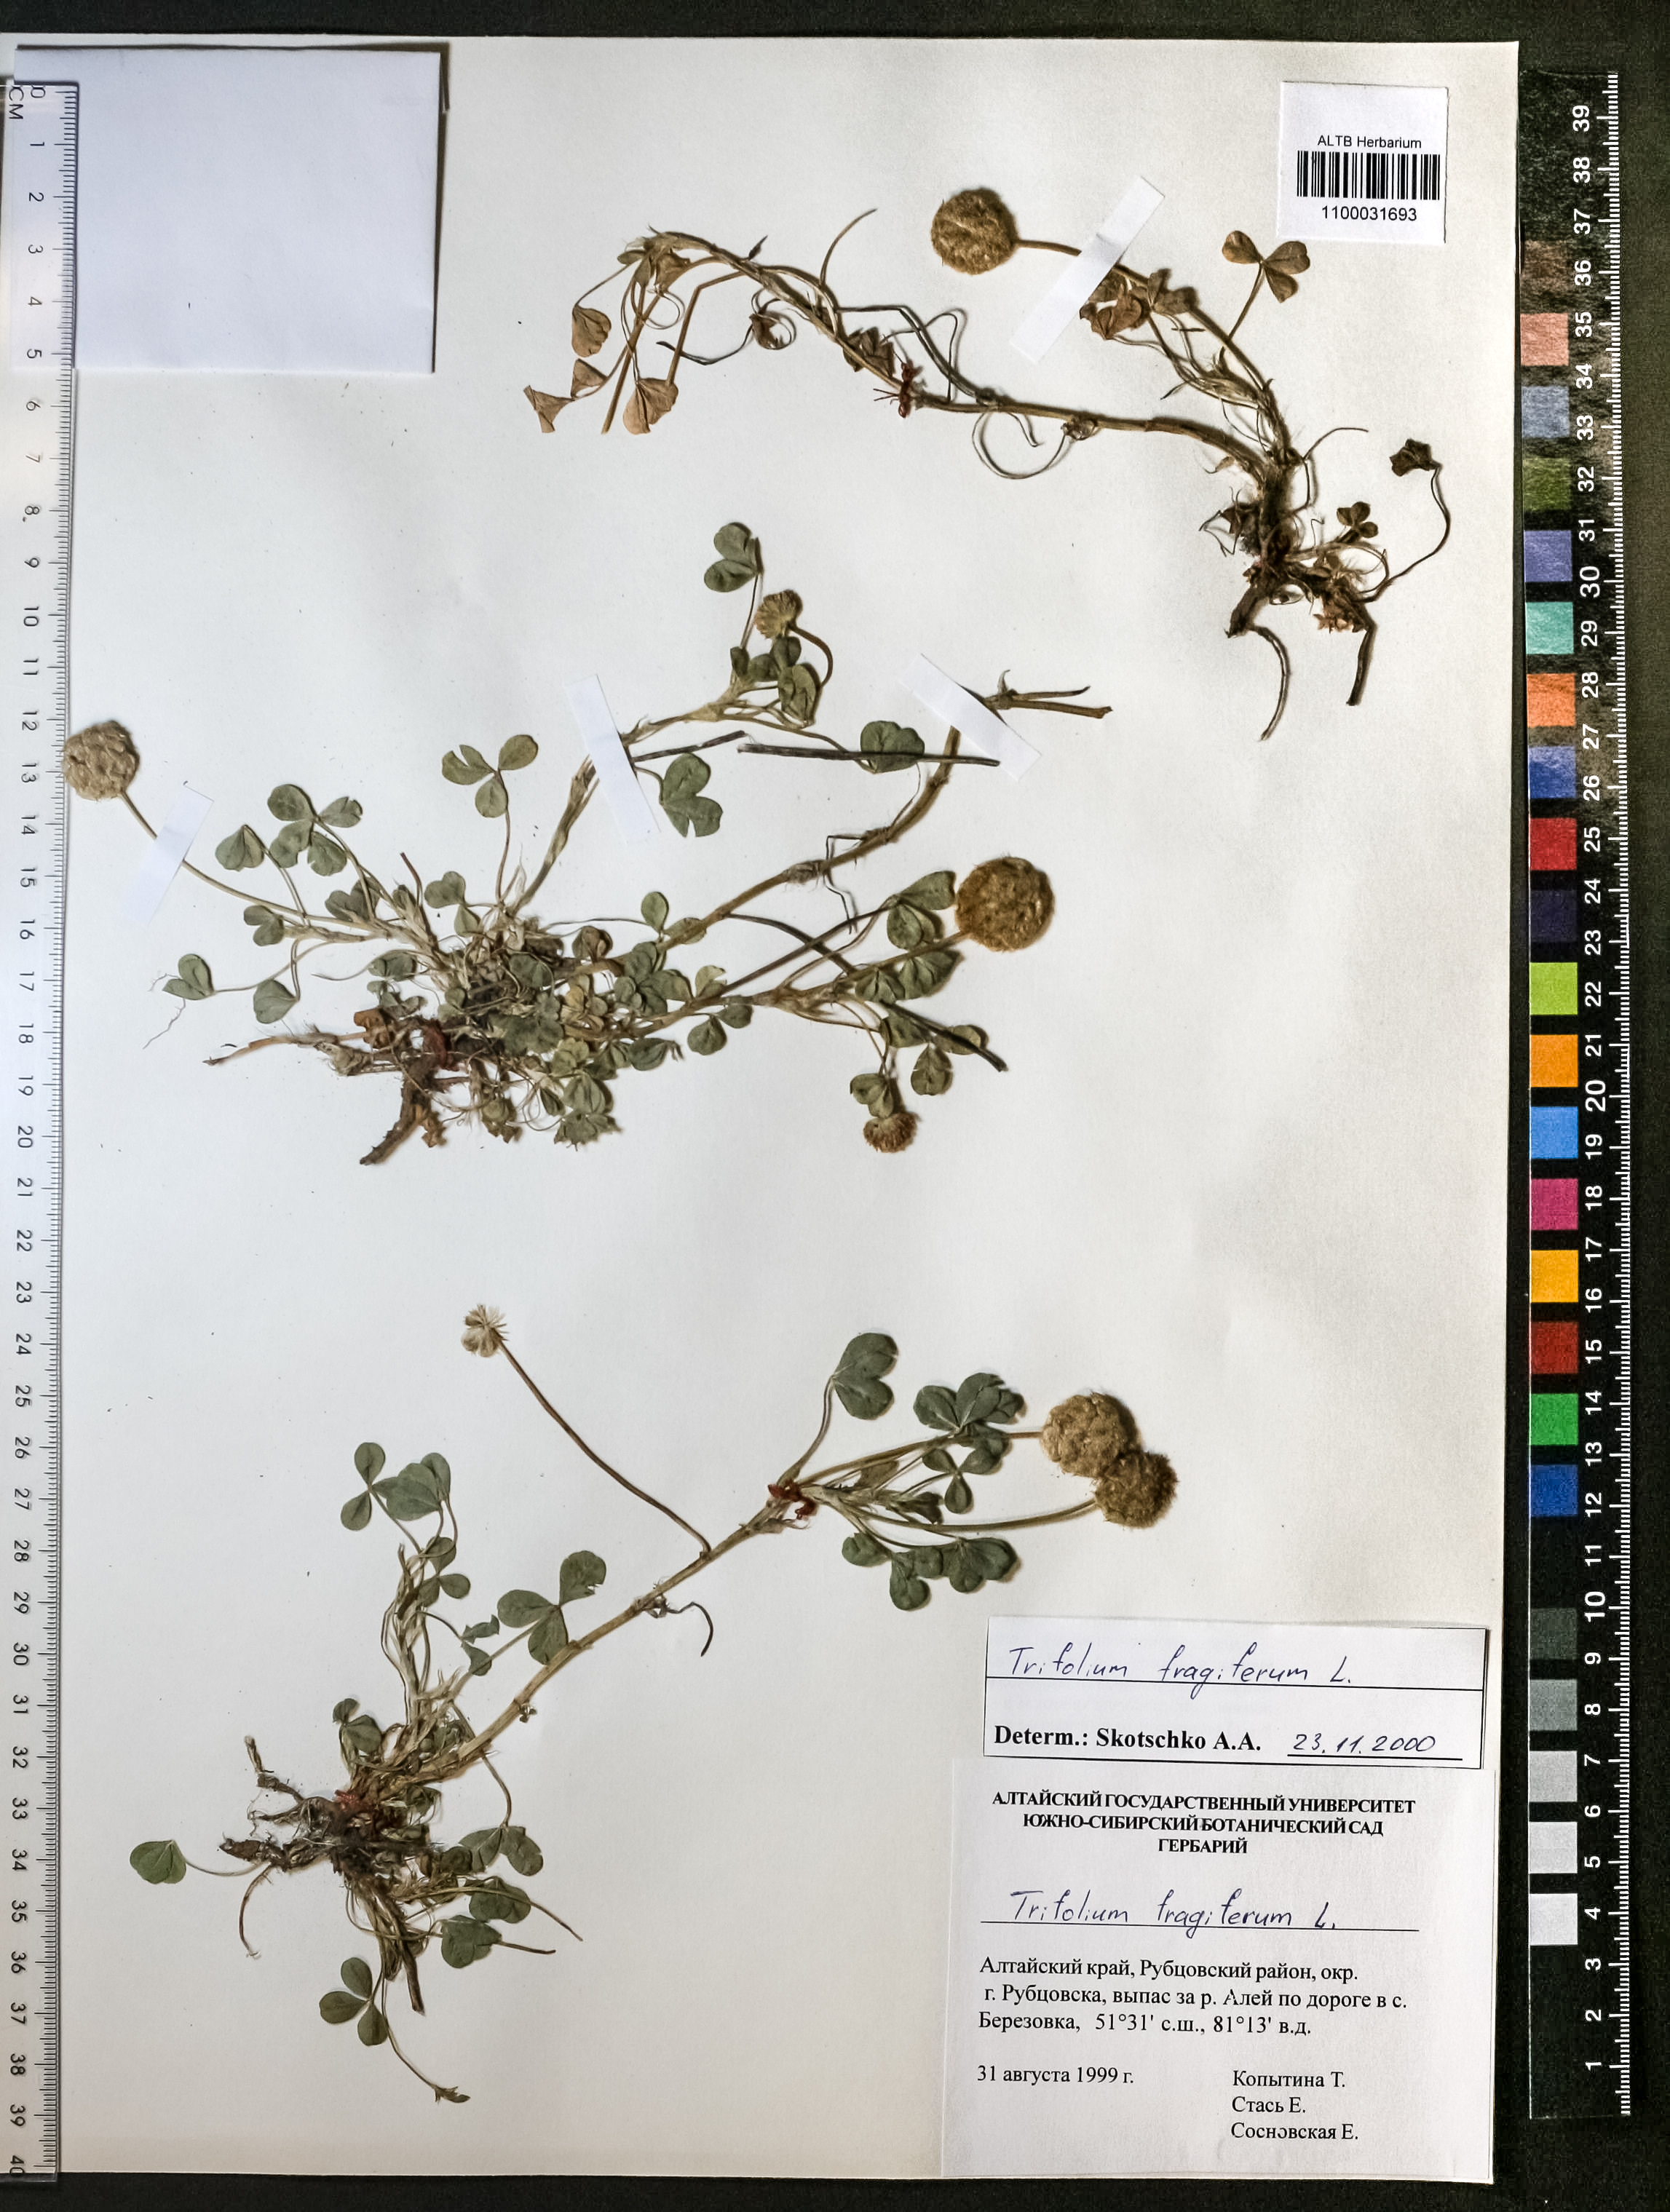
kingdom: Plantae
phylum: Tracheophyta
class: Magnoliopsida
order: Fabales
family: Fabaceae
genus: Trifolium
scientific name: Trifolium fragiferum
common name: Strawberry clover
